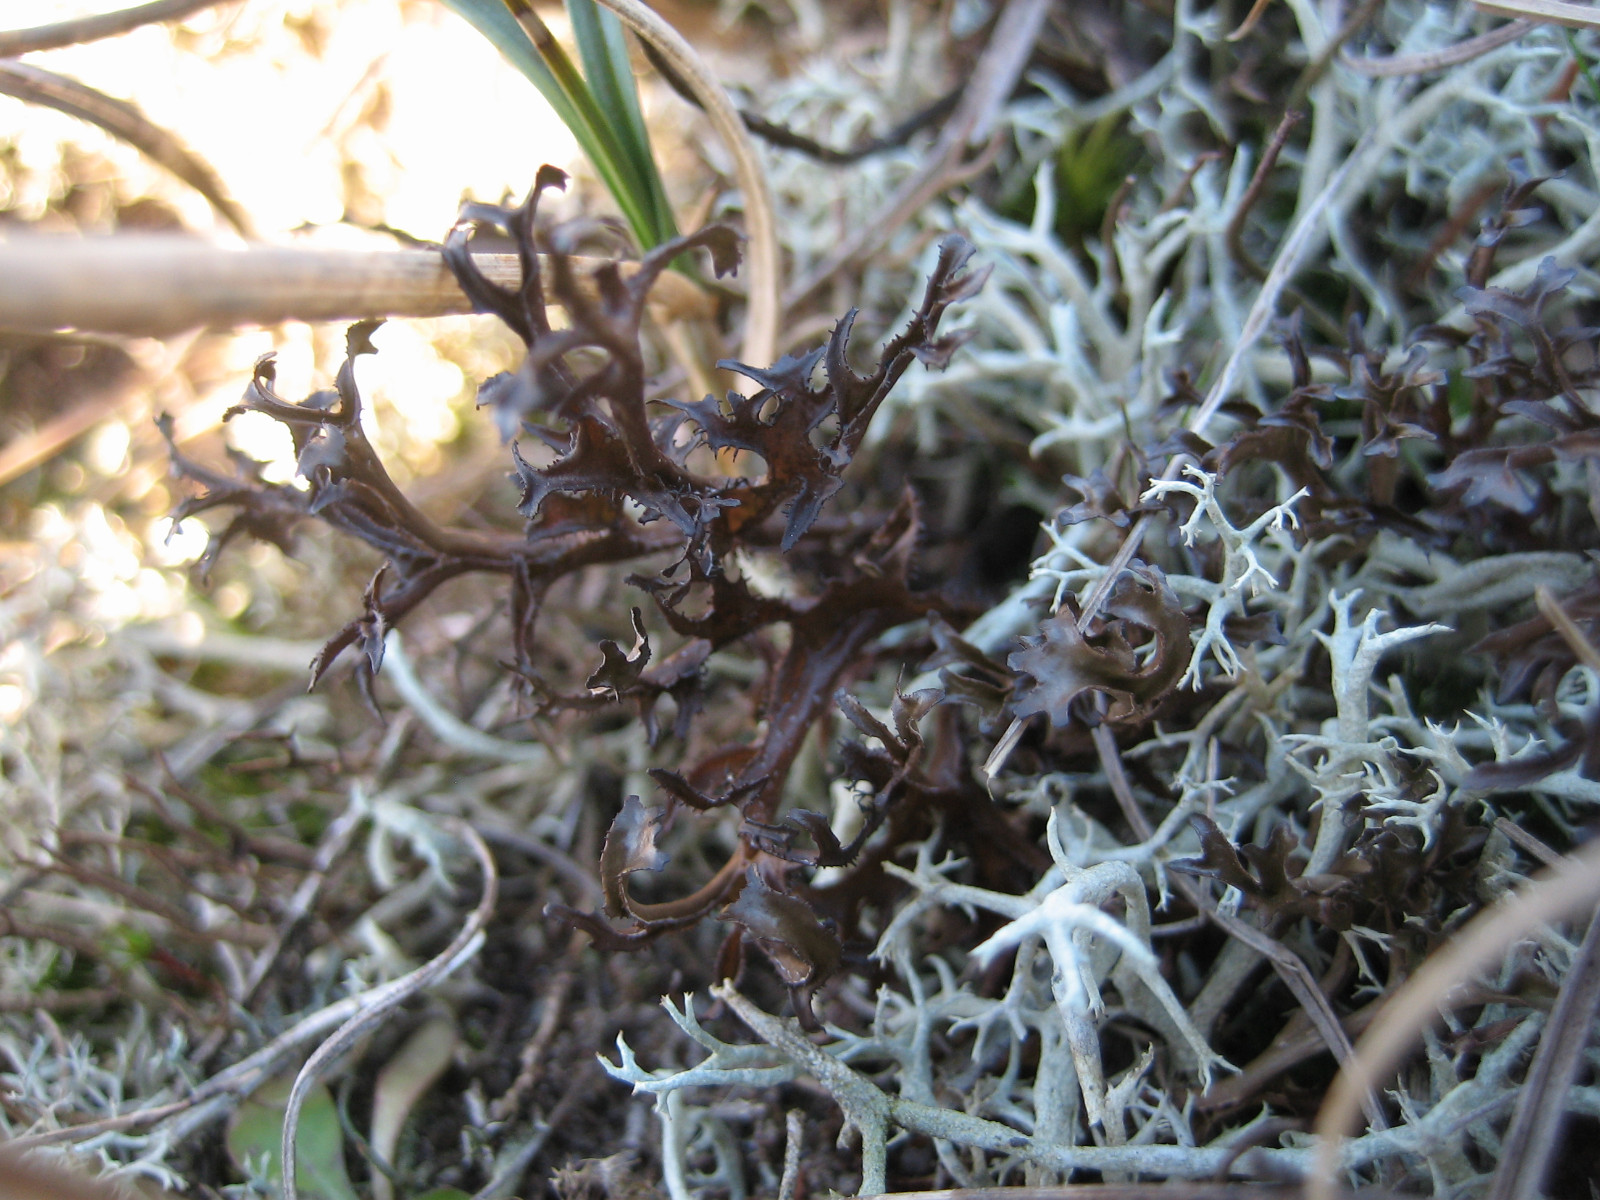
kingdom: Fungi
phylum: Ascomycota
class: Lecanoromycetes
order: Lecanorales
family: Parmeliaceae
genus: Cetraria
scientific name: Cetraria islandica
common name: islandsk kruslav
